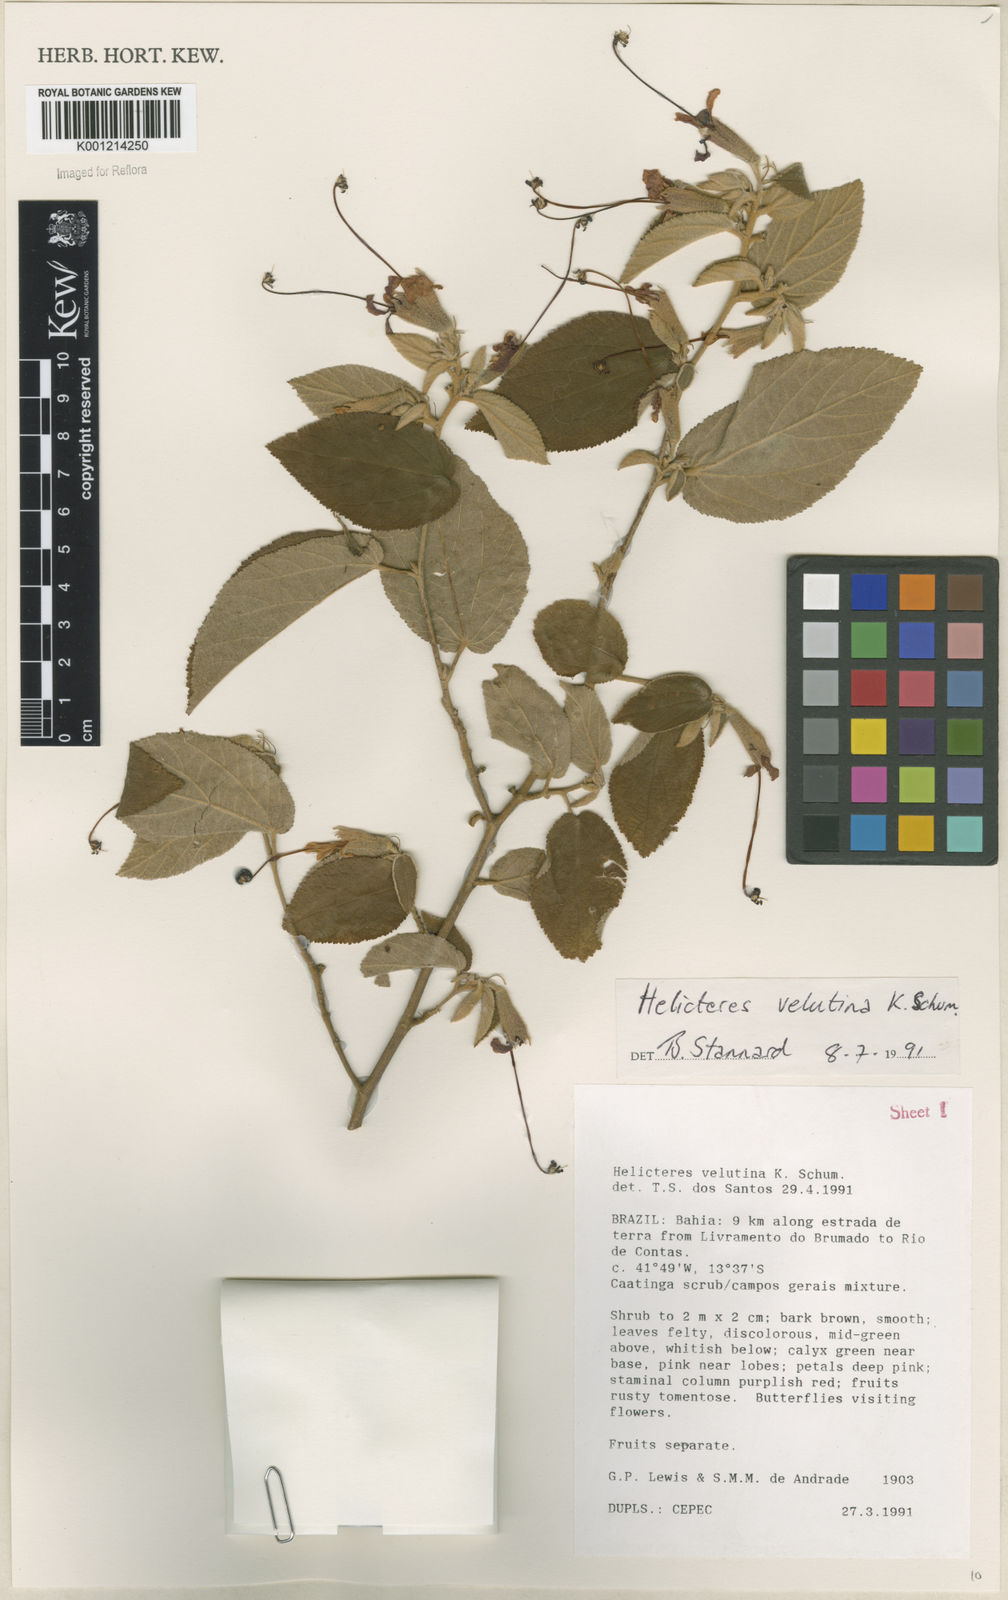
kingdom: Plantae
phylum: Tracheophyta
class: Magnoliopsida
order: Malvales
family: Malvaceae
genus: Helicteres
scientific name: Helicteres velutina
